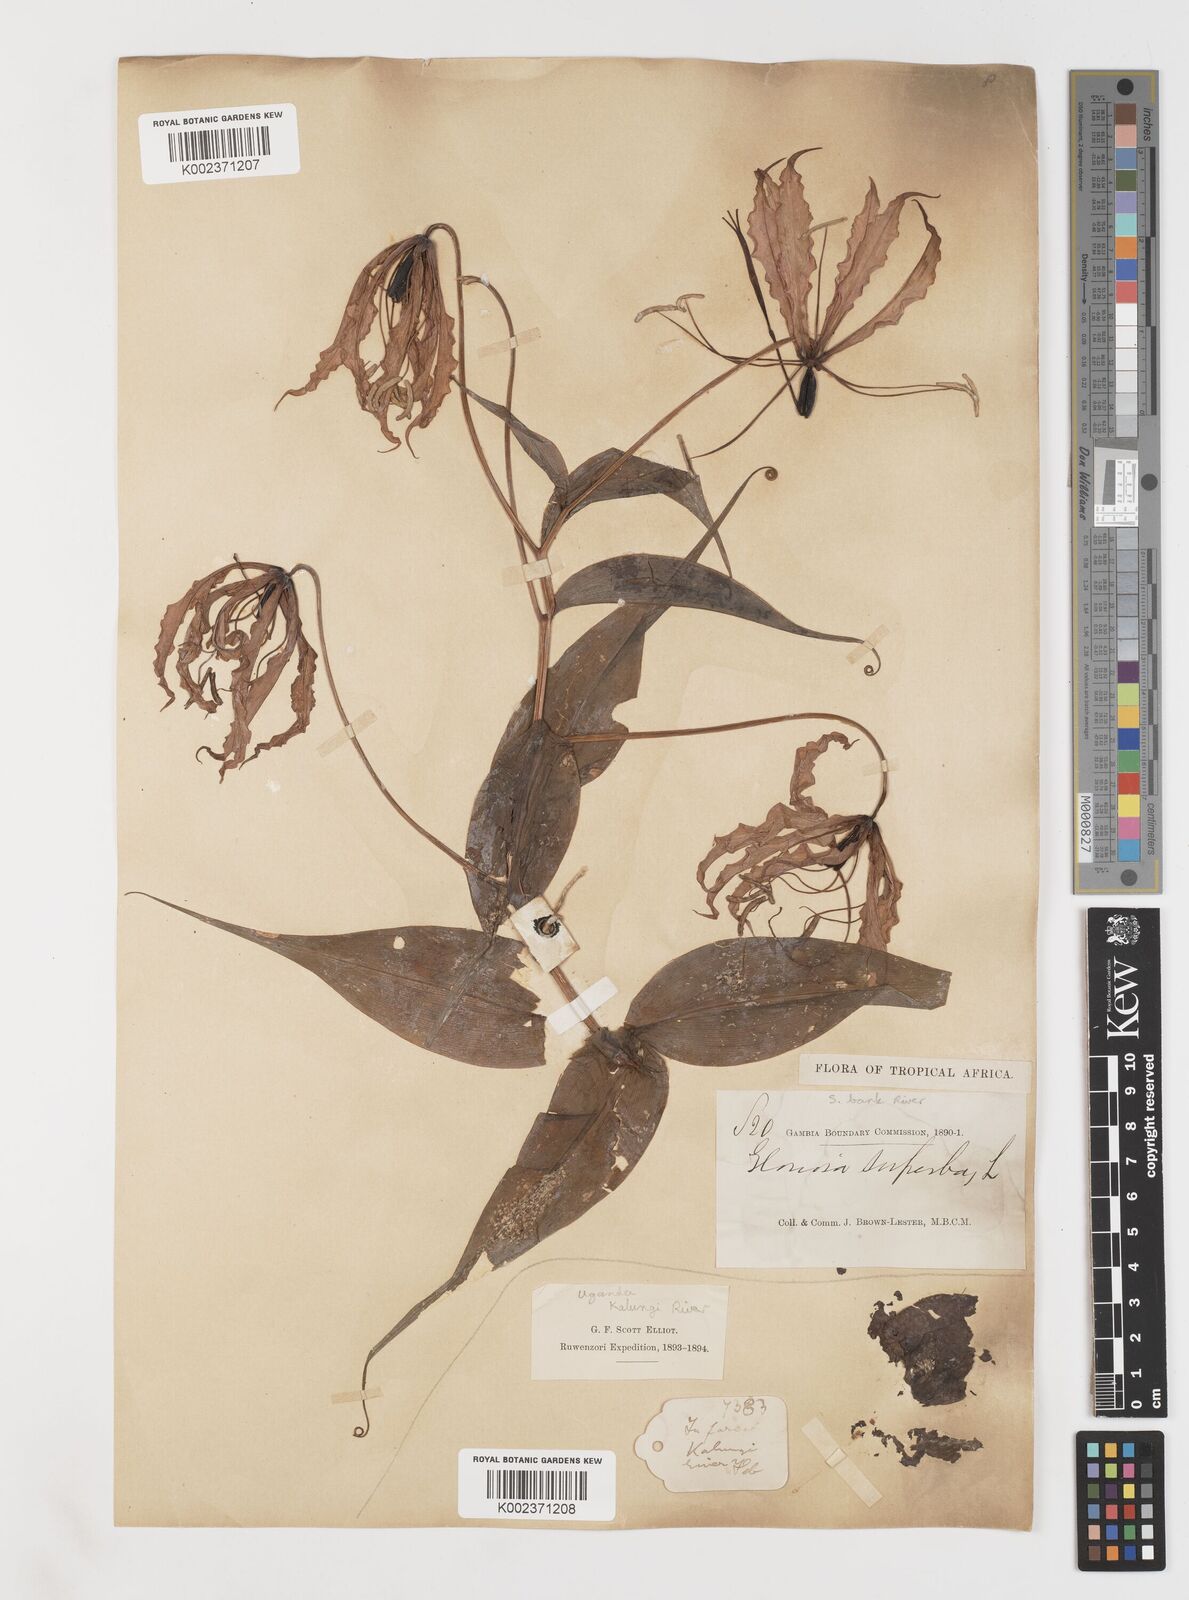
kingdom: Plantae
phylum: Tracheophyta
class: Liliopsida
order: Liliales
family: Colchicaceae
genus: Gloriosa
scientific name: Gloriosa superba
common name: Flame lily
